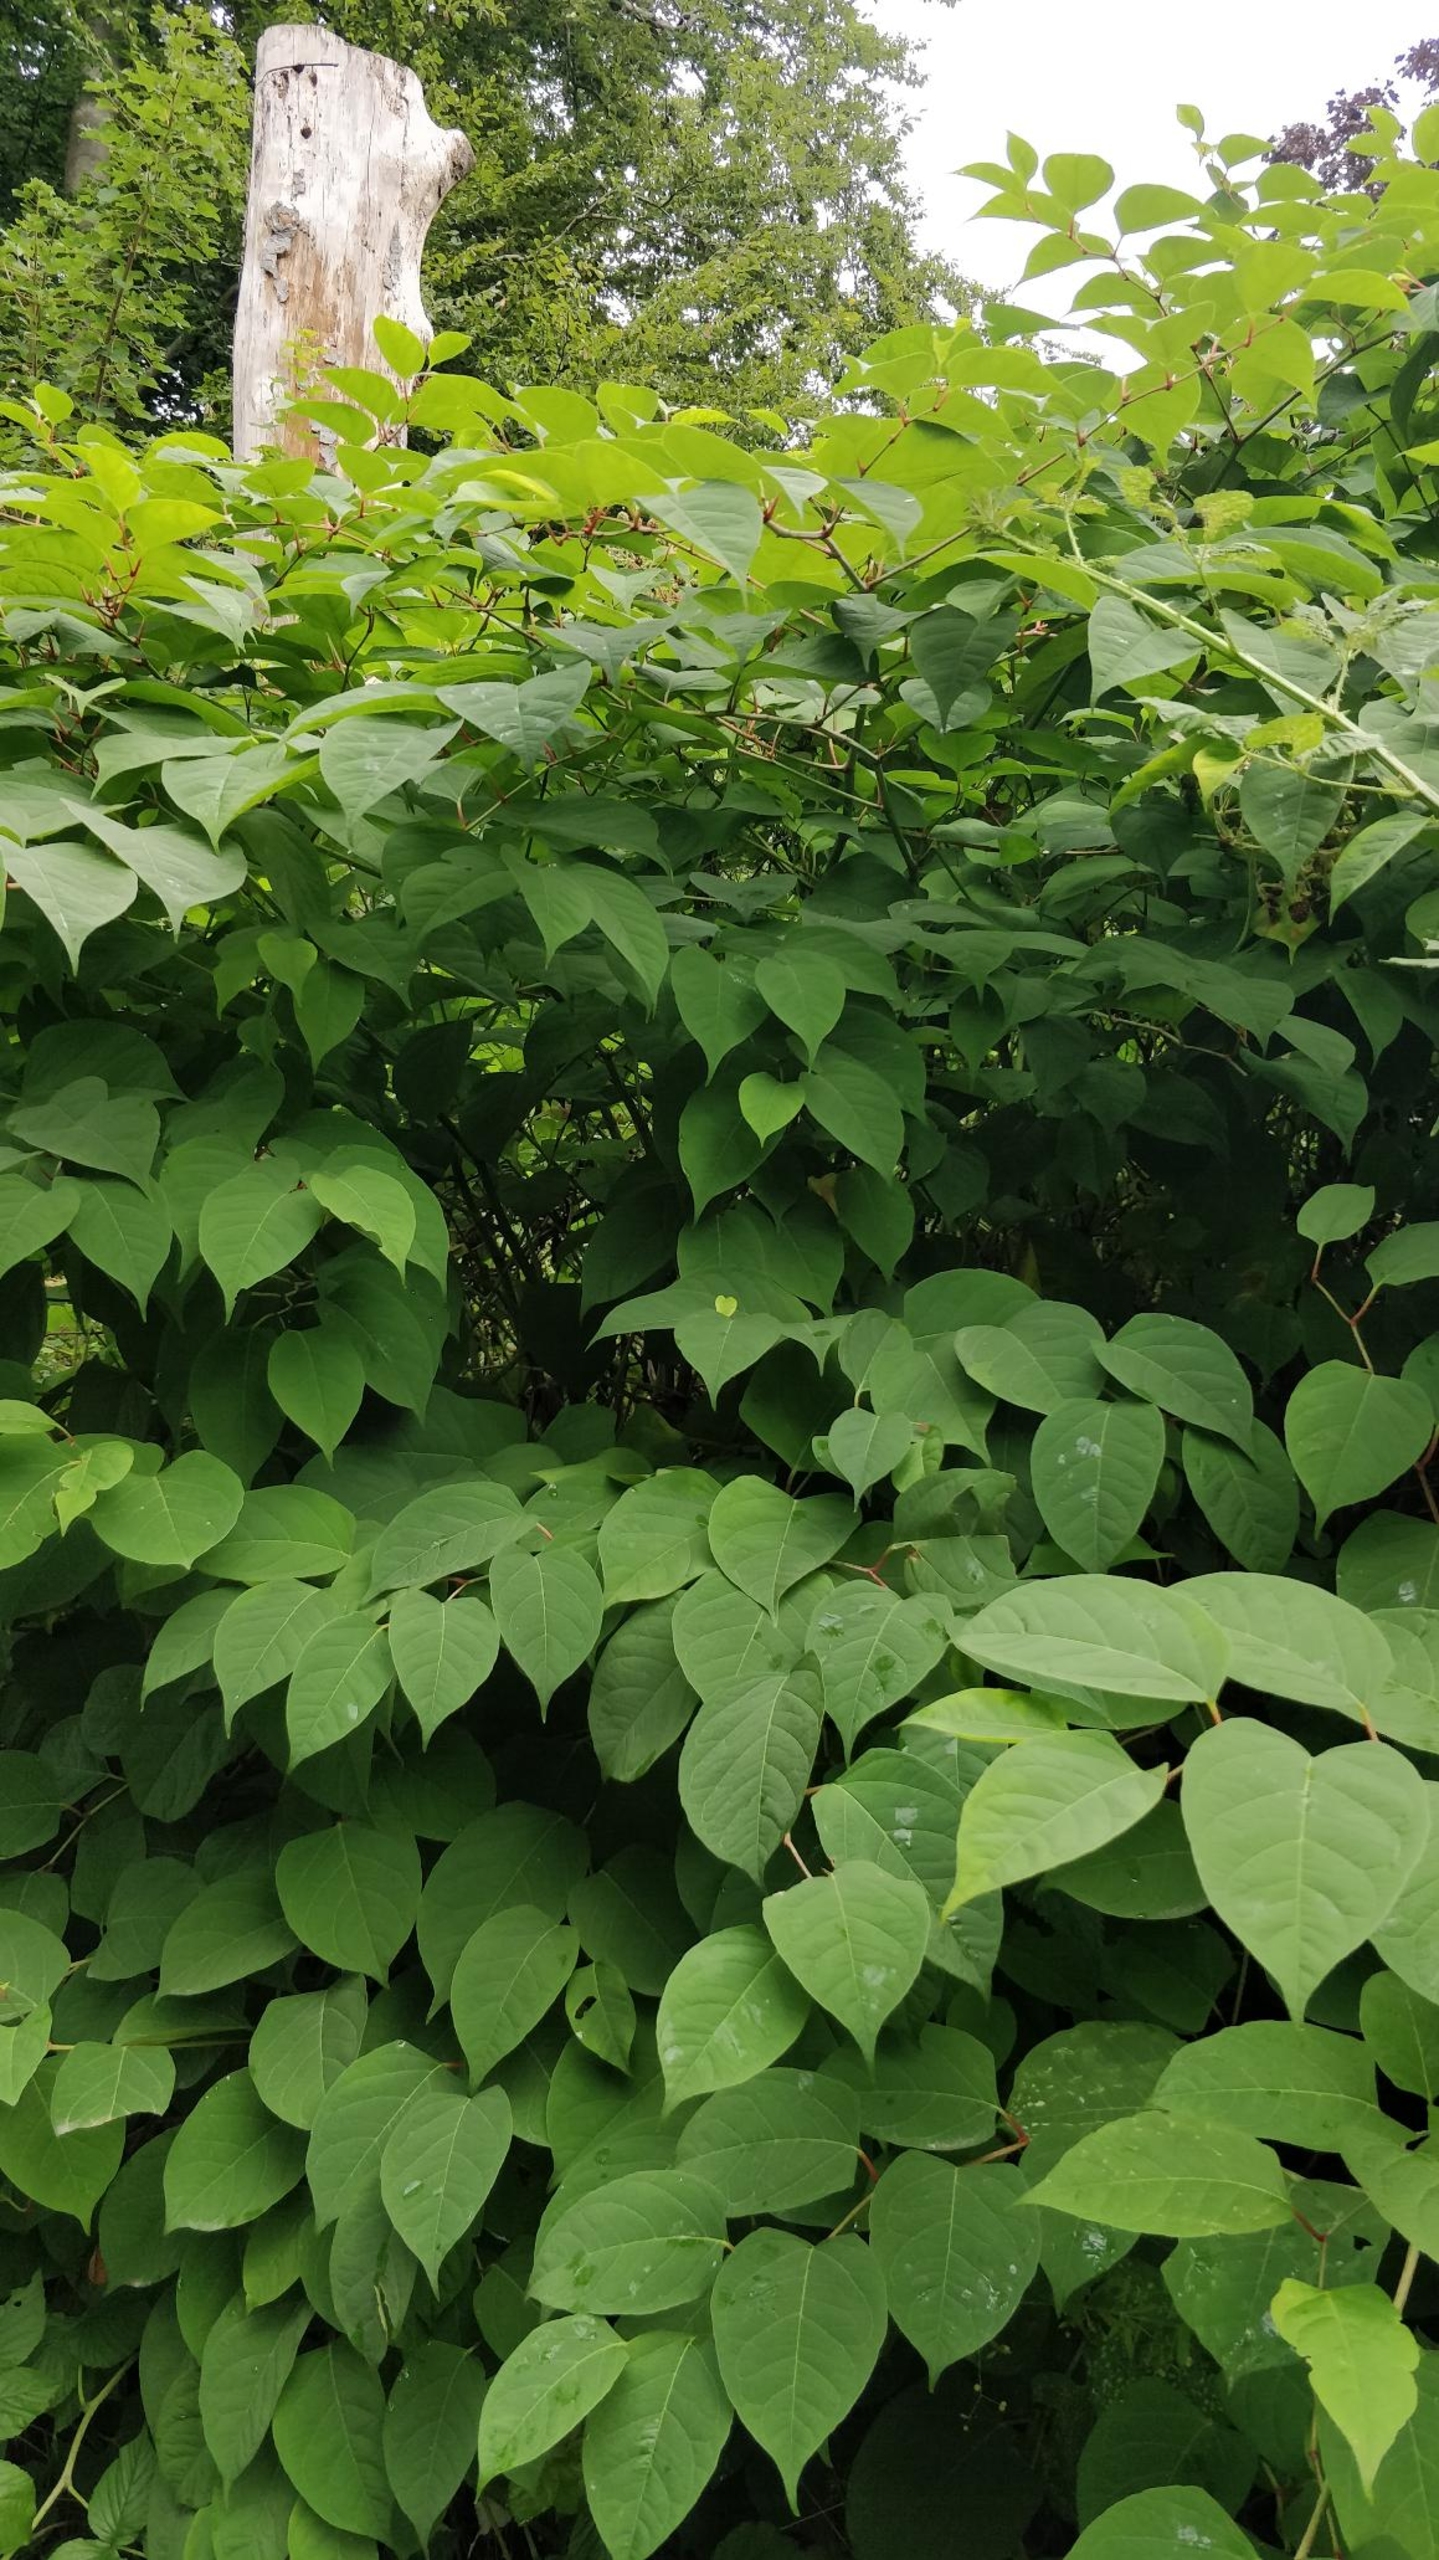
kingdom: Plantae
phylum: Tracheophyta
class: Magnoliopsida
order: Caryophyllales
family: Polygonaceae
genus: Reynoutria
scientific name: Reynoutria japonica
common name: Japan-pileurt
